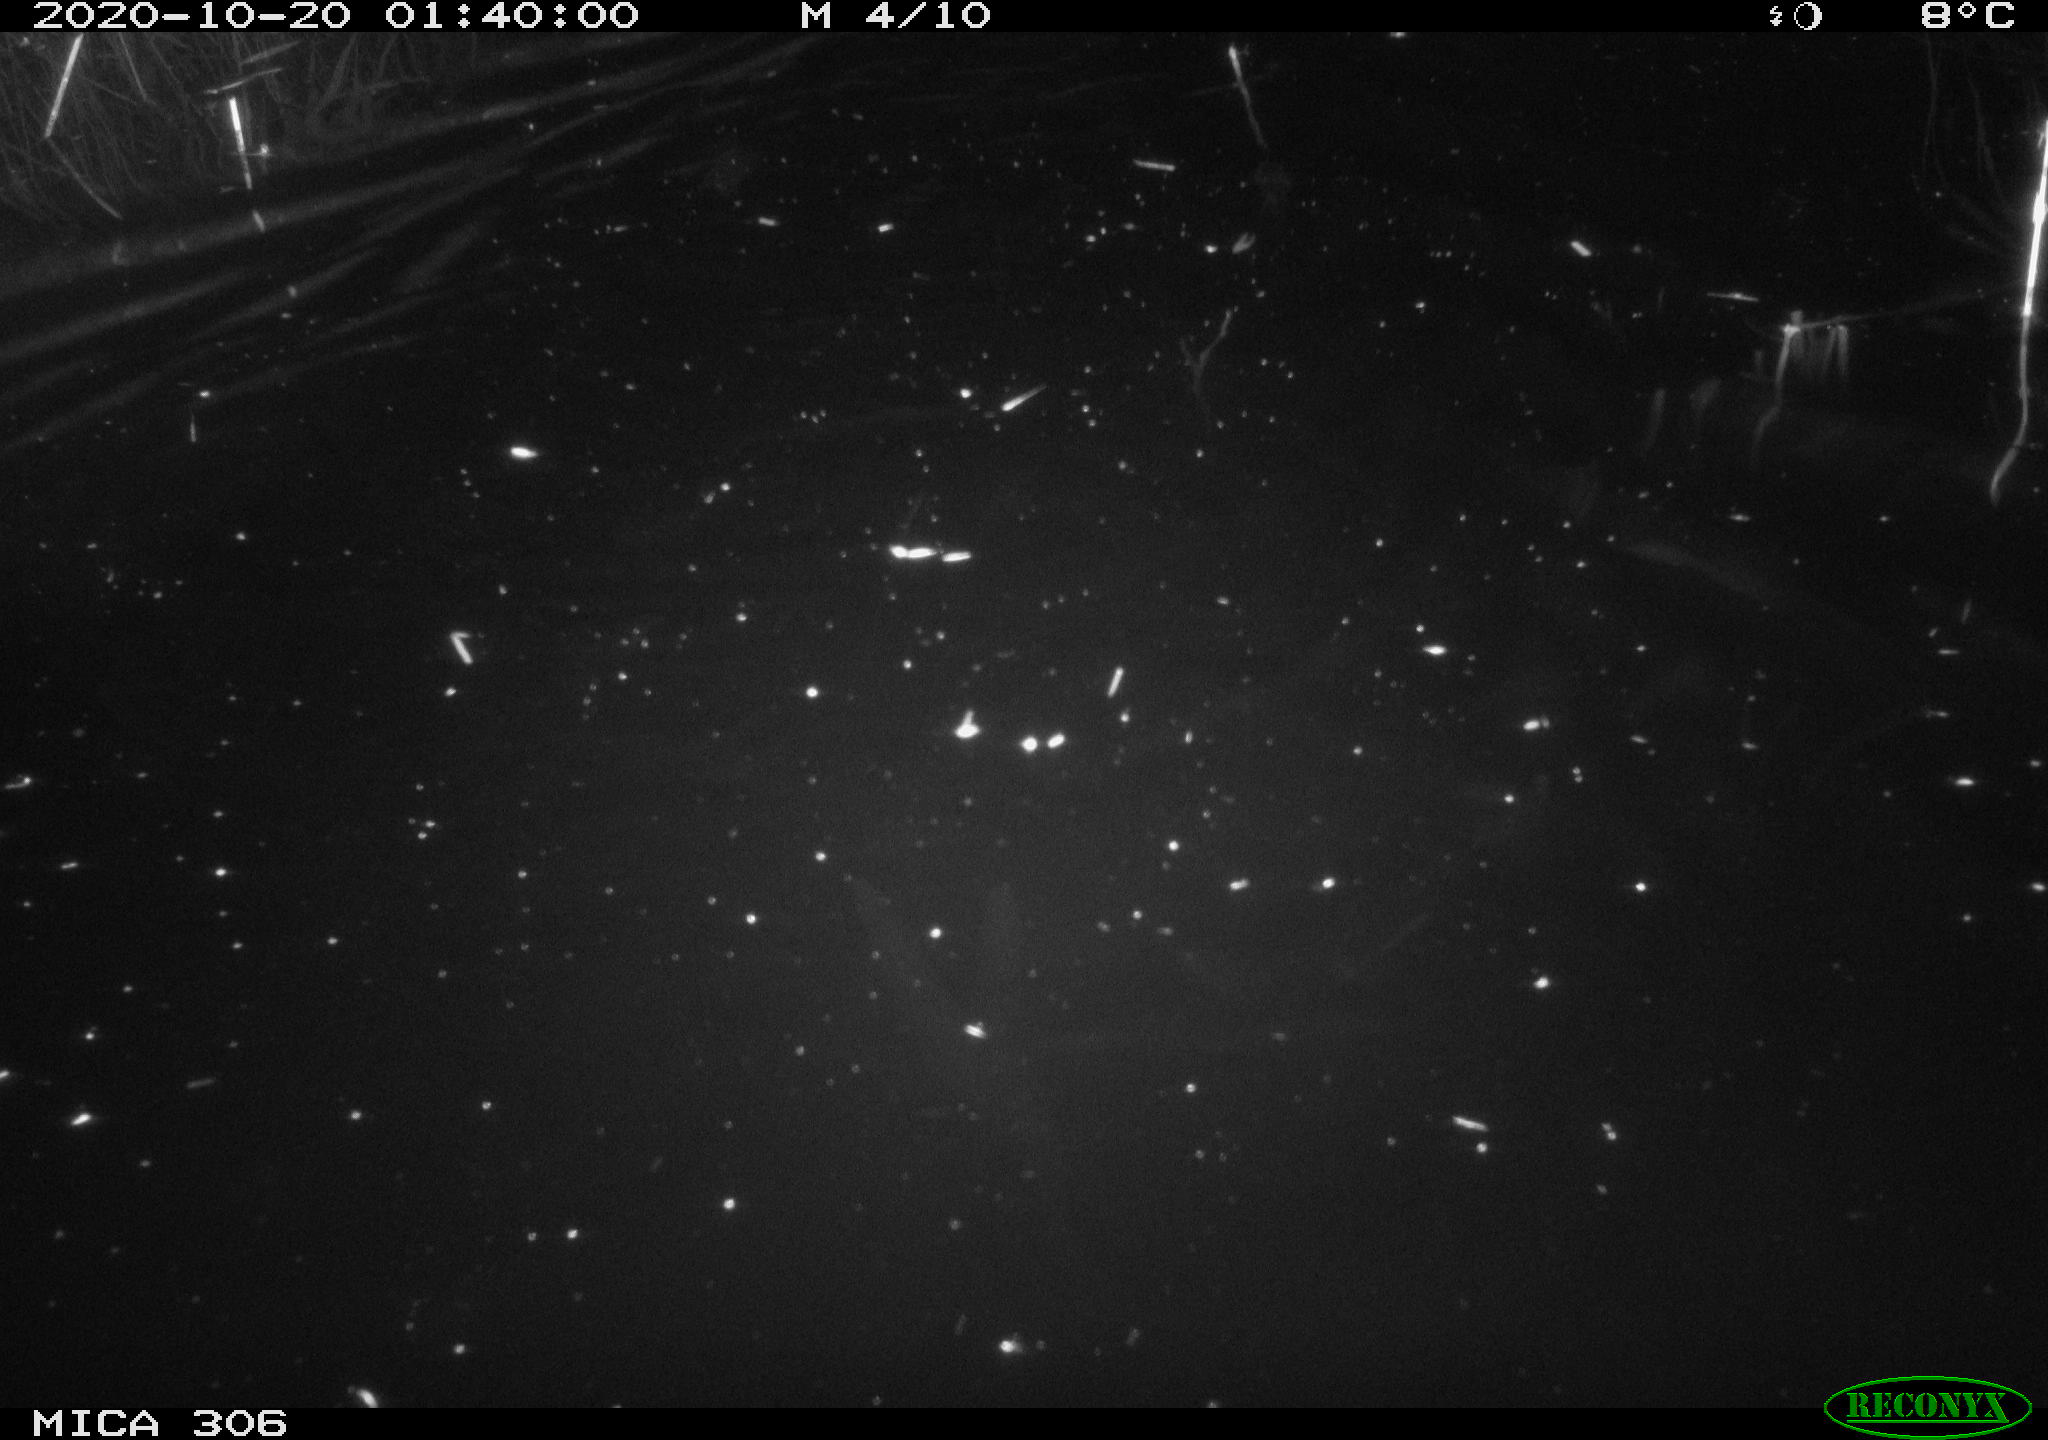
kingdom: Animalia
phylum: Chordata
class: Mammalia
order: Rodentia
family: Cricetidae
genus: Ondatra
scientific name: Ondatra zibethicus
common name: Muskrat
